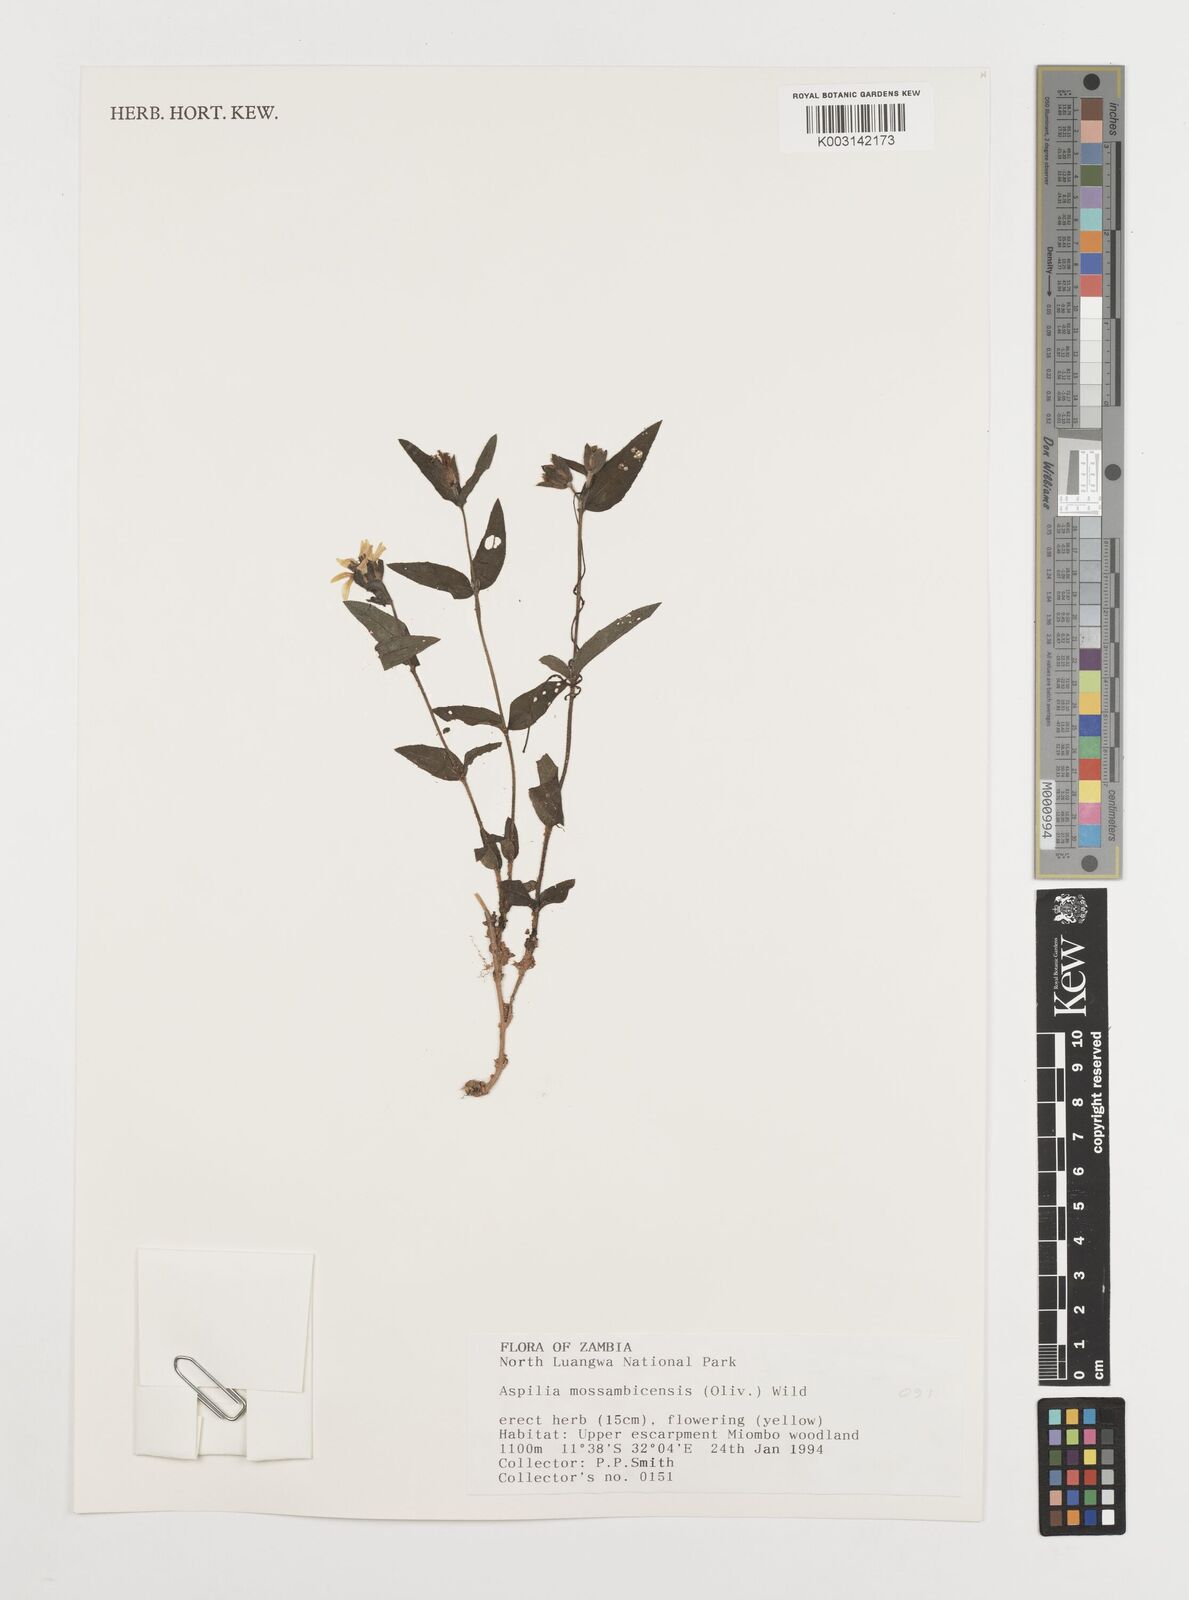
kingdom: Plantae
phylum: Tracheophyta
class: Magnoliopsida
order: Asterales
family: Asteraceae
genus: Aspilia
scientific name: Aspilia mossambicensis
